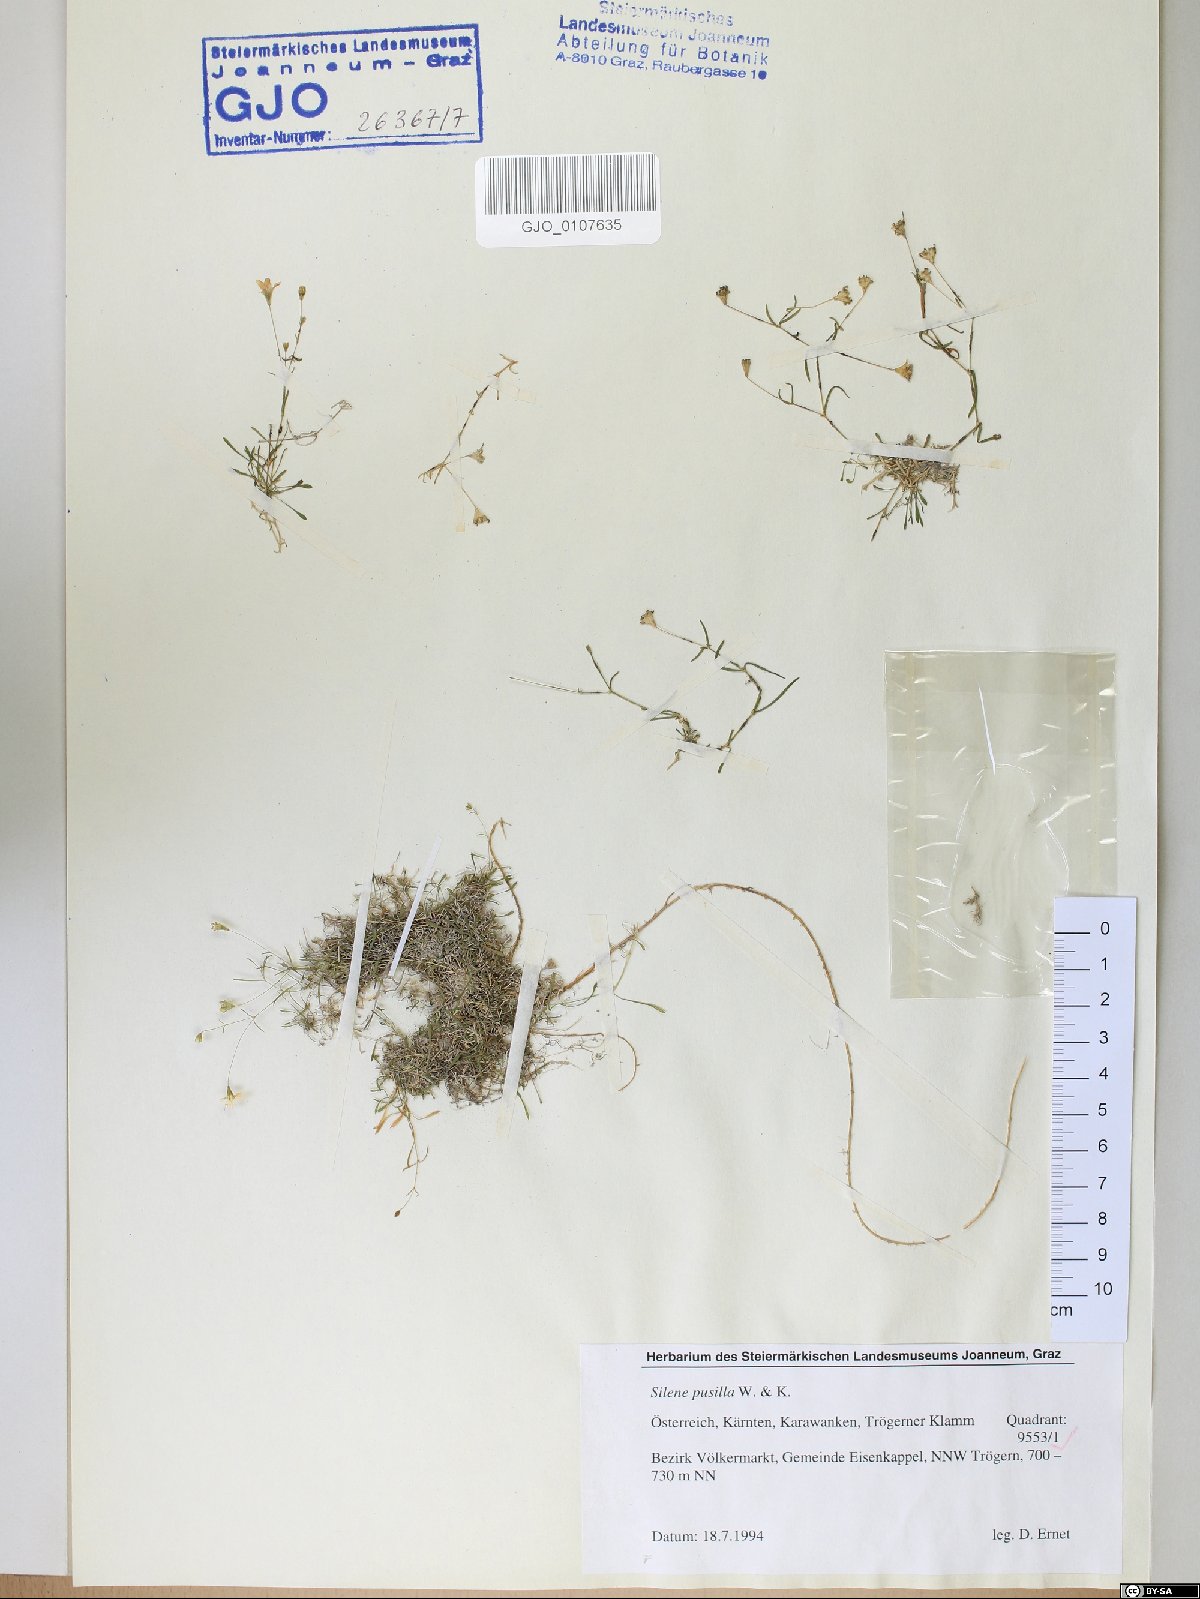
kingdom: Plantae
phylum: Tracheophyta
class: Magnoliopsida
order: Caryophyllales
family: Caryophyllaceae
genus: Heliosperma
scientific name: Heliosperma pusillum
